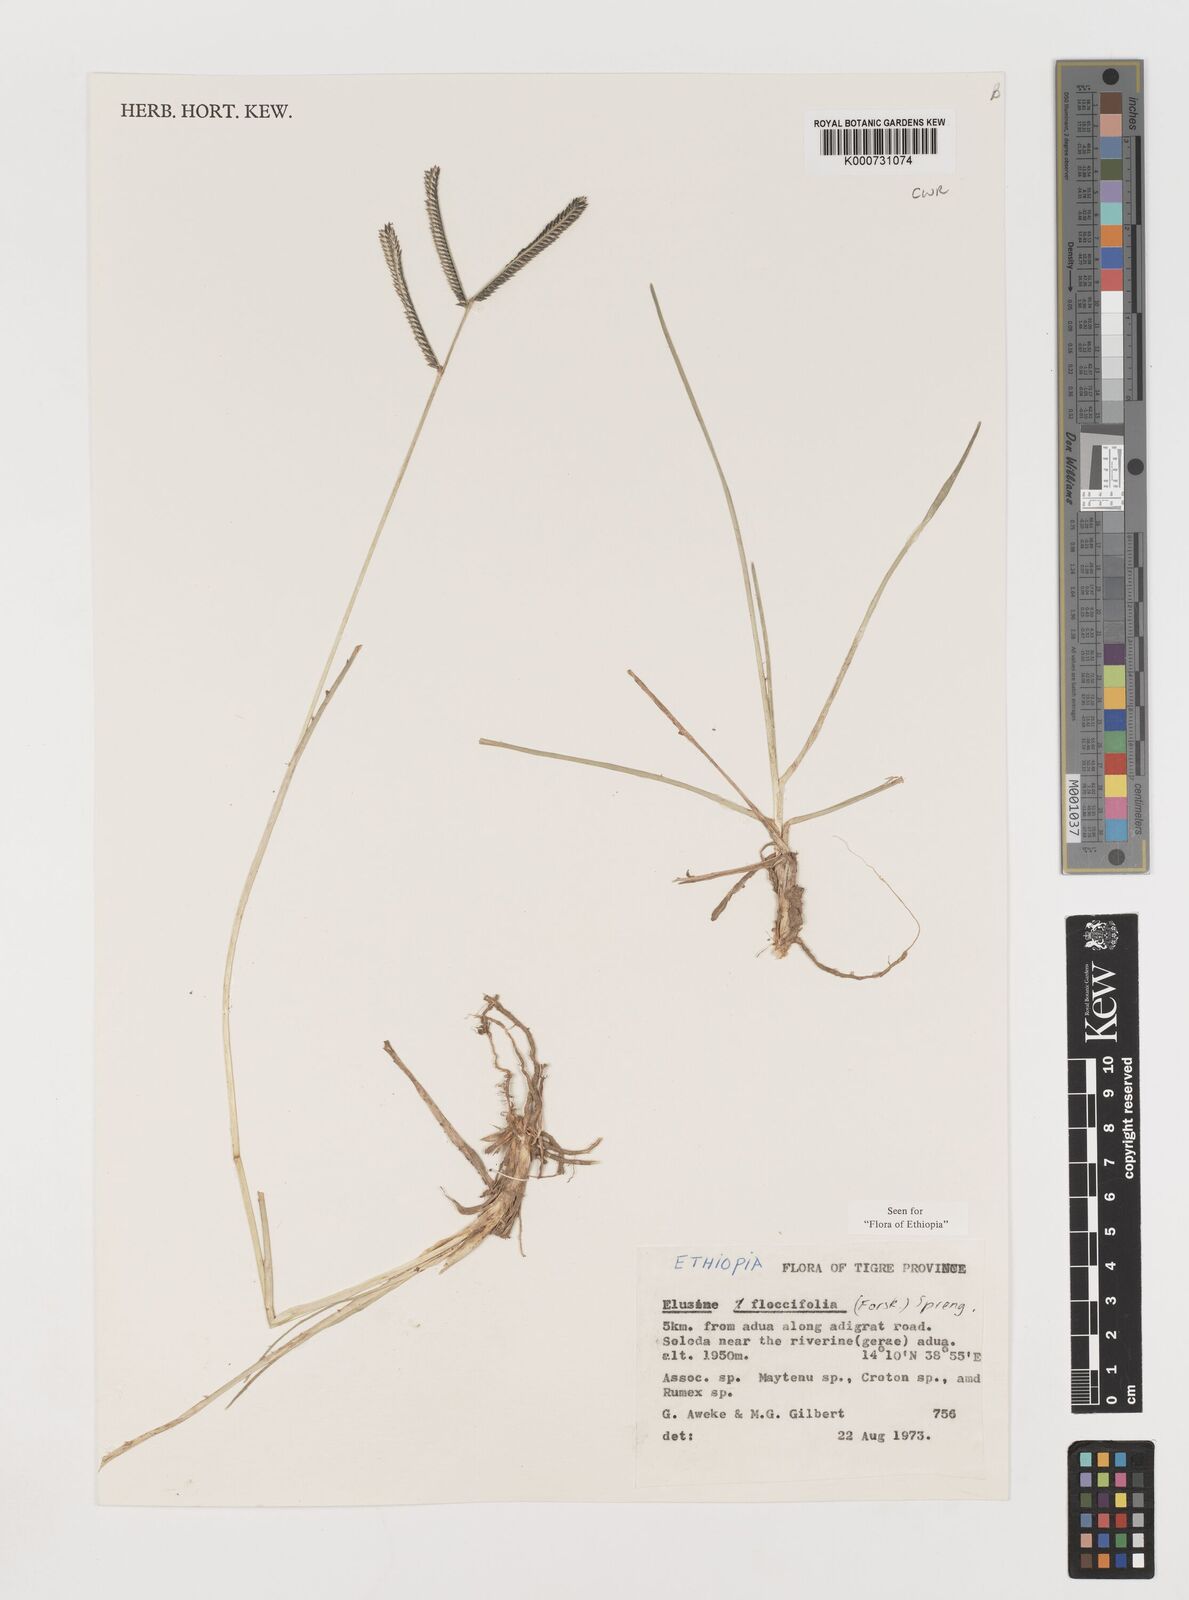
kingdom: Plantae
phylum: Tracheophyta
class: Liliopsida
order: Poales
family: Poaceae
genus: Eleusine
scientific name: Eleusine floccifolia
